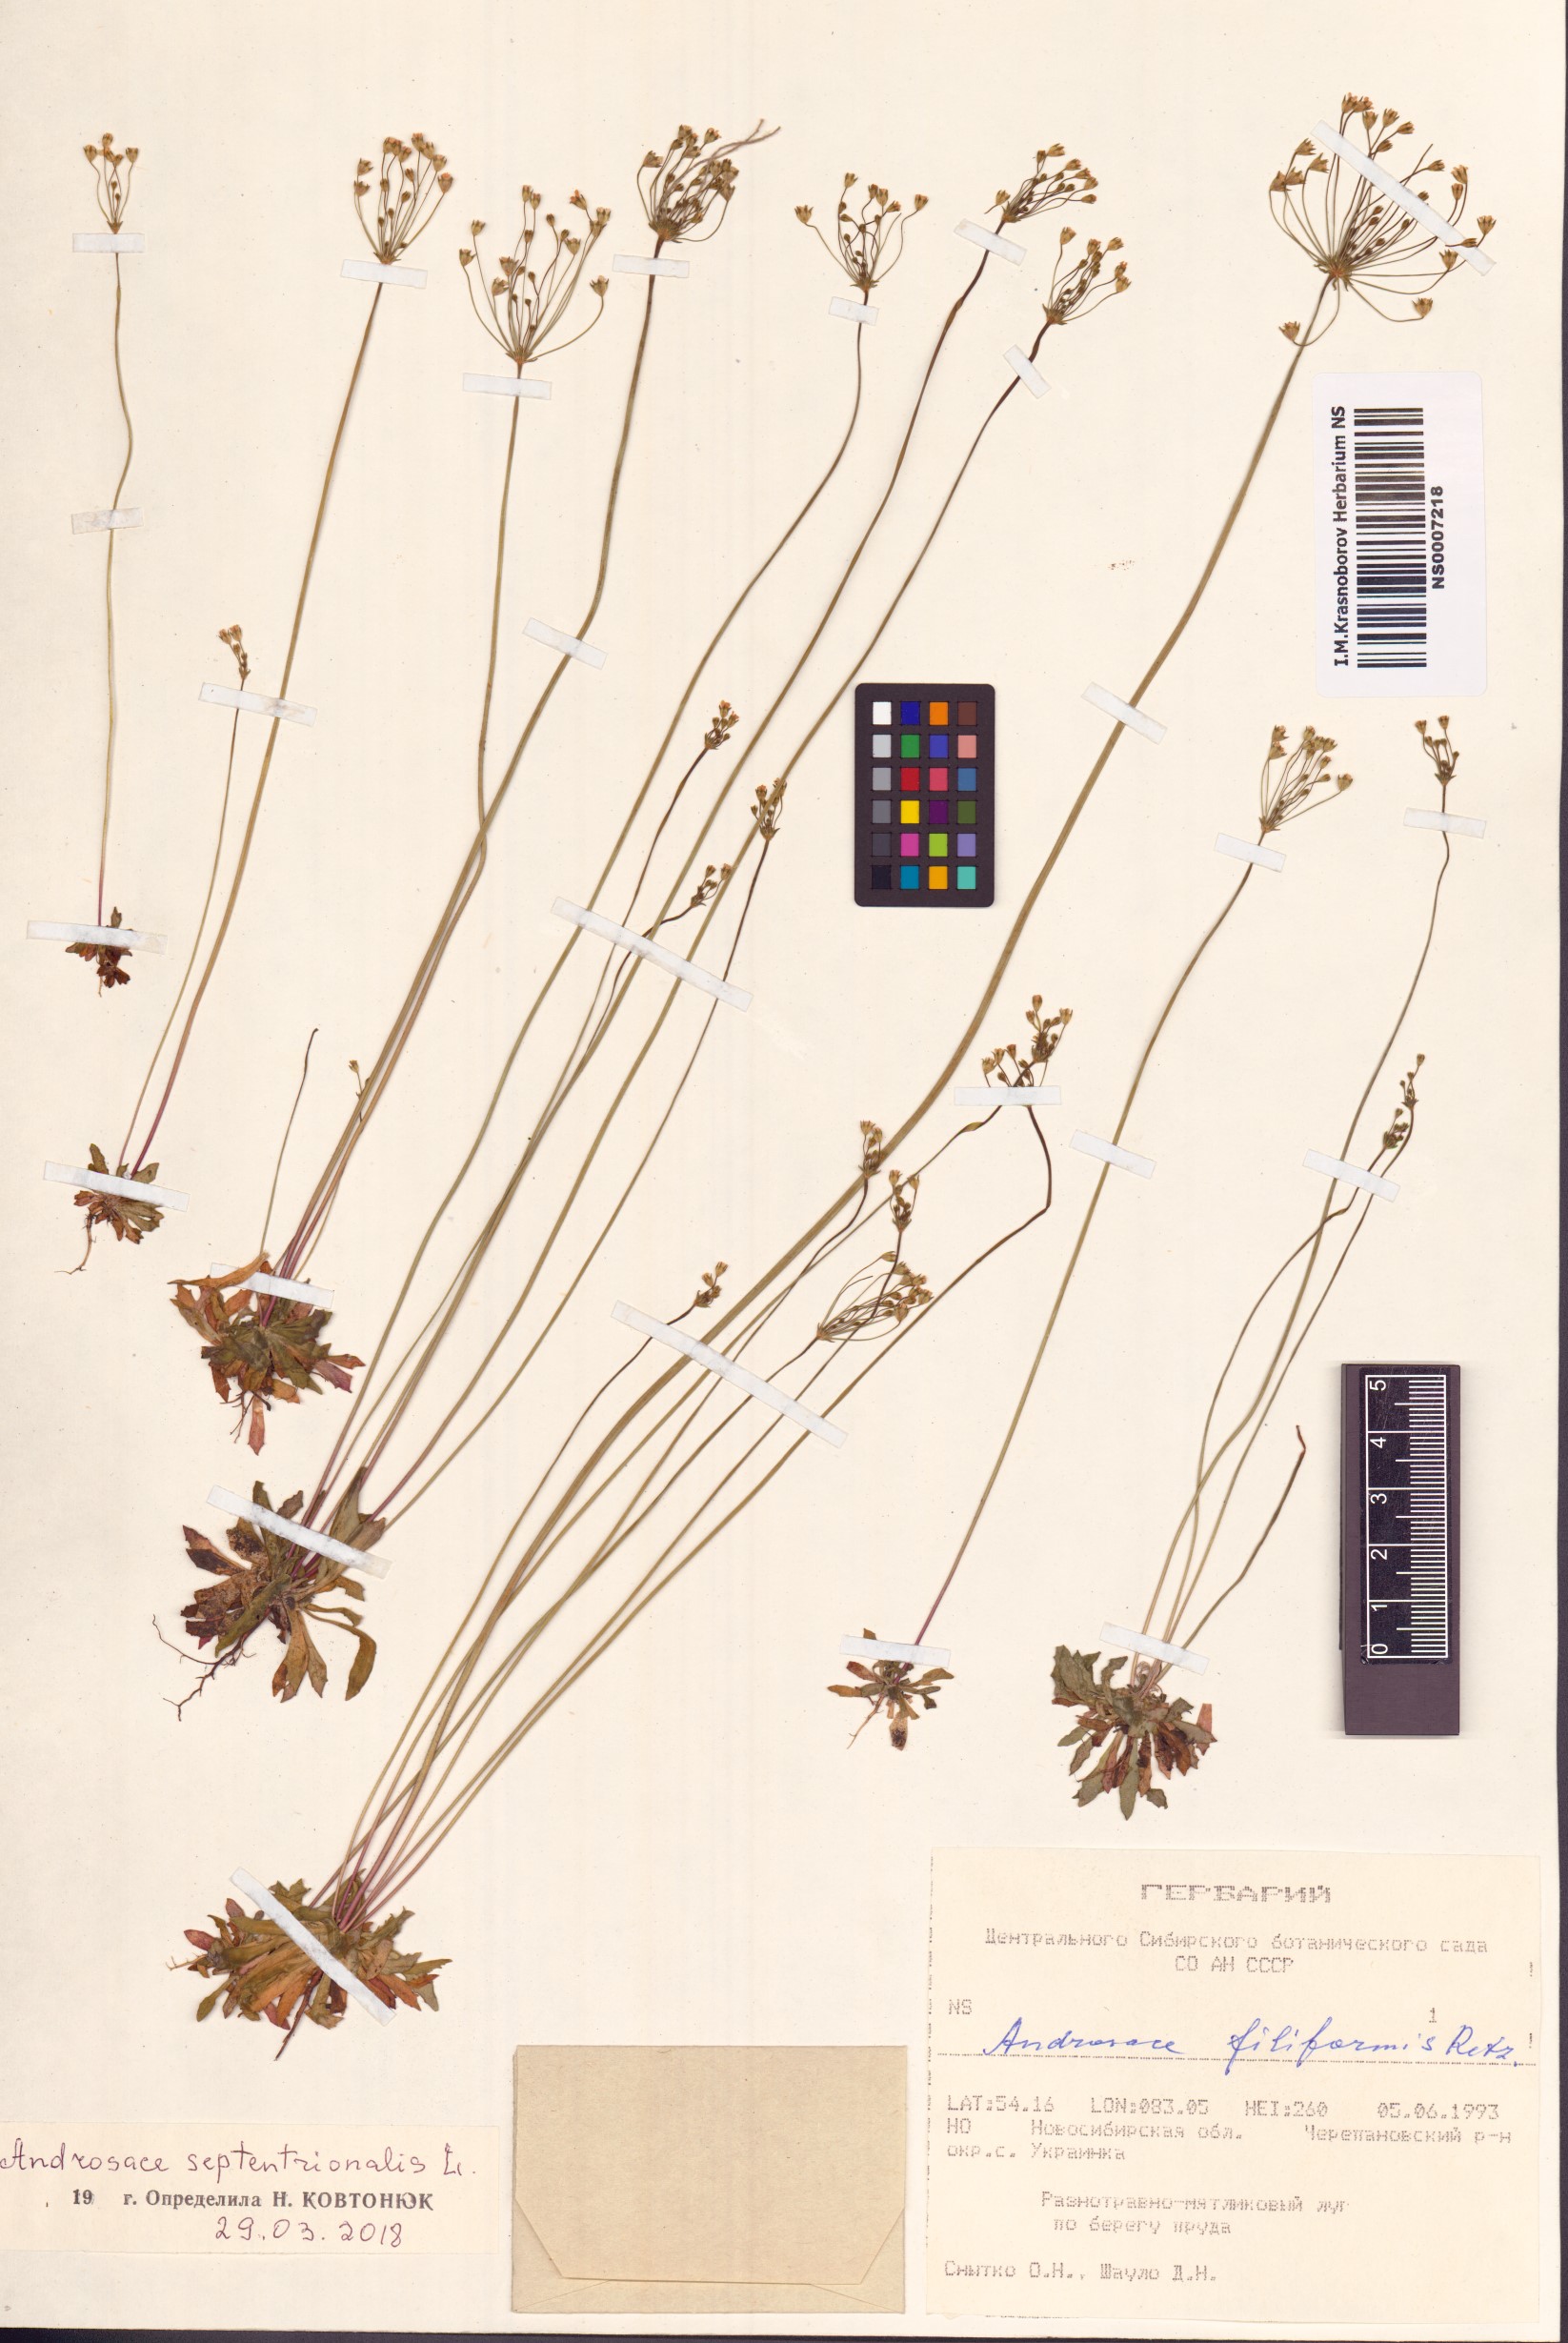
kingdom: Plantae
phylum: Tracheophyta
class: Magnoliopsida
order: Ericales
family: Primulaceae
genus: Androsace
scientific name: Androsace septentrionalis
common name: Hairy northern fairy-candelabra
